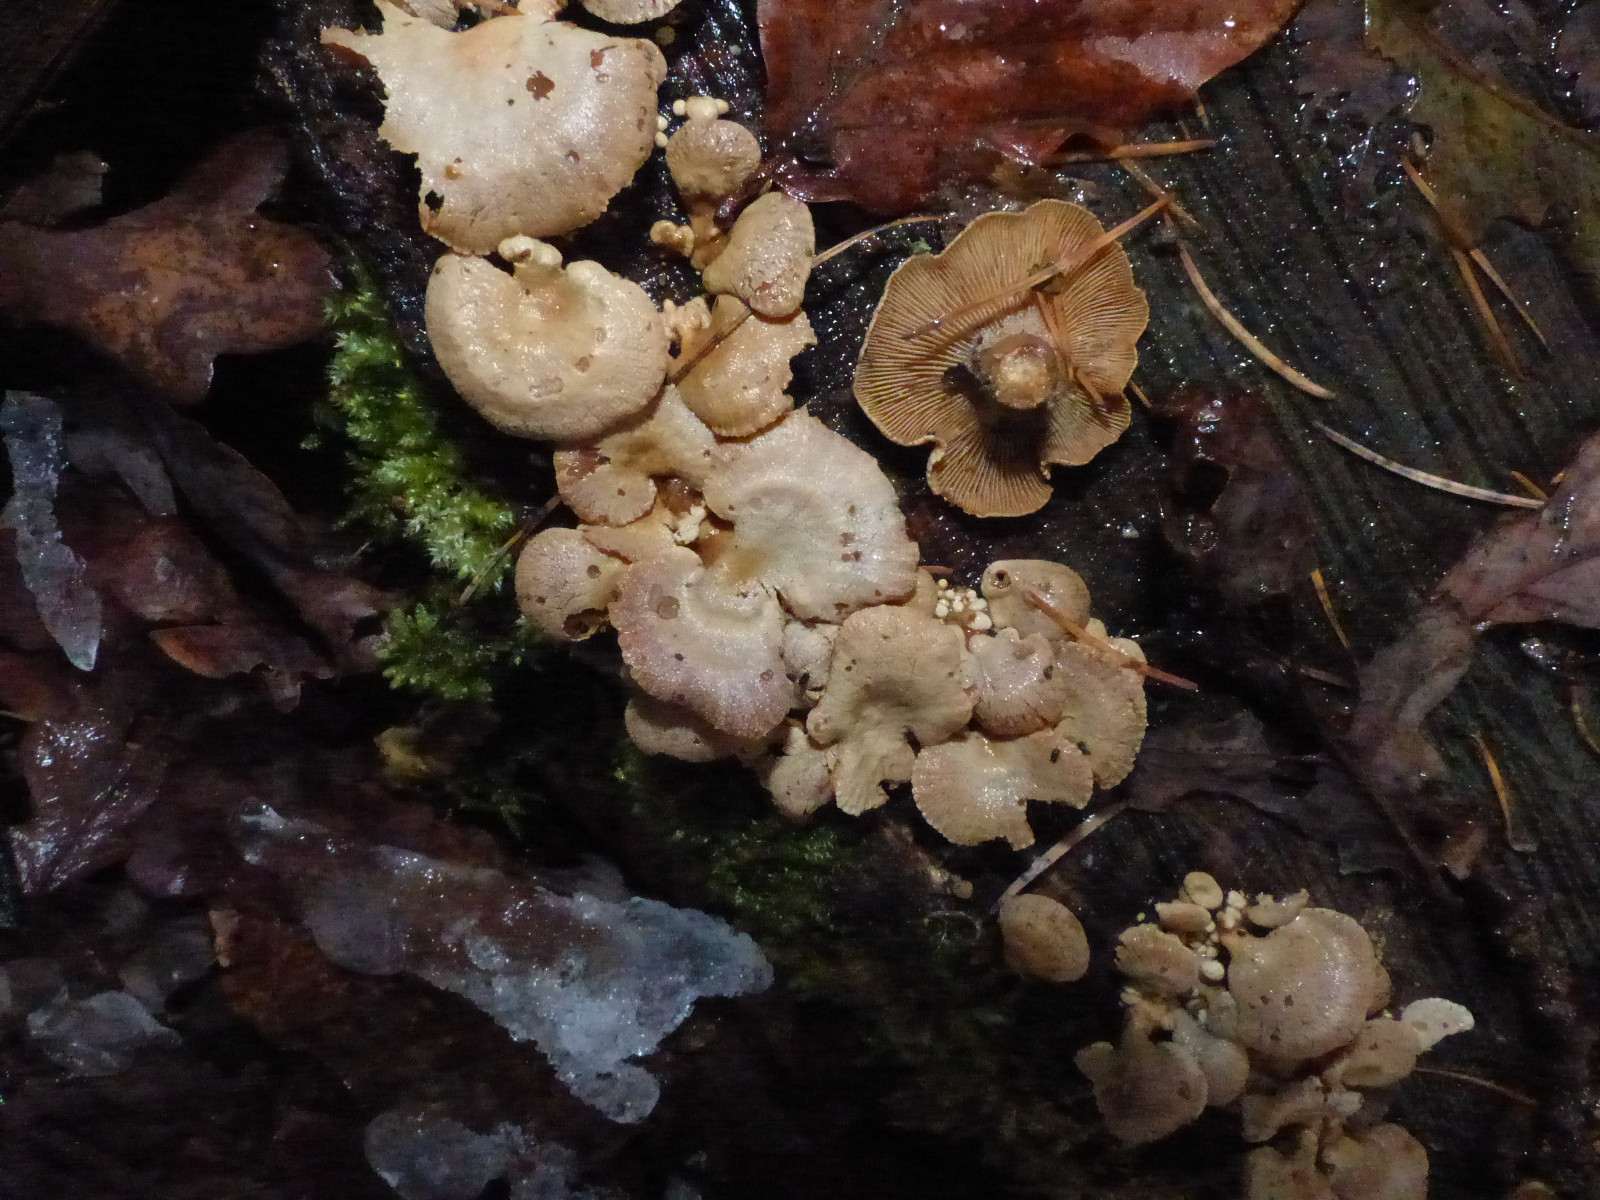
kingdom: Fungi
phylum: Basidiomycota
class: Agaricomycetes
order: Agaricales
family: Mycenaceae
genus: Panellus
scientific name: Panellus stipticus
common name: kliddet epaulethat
